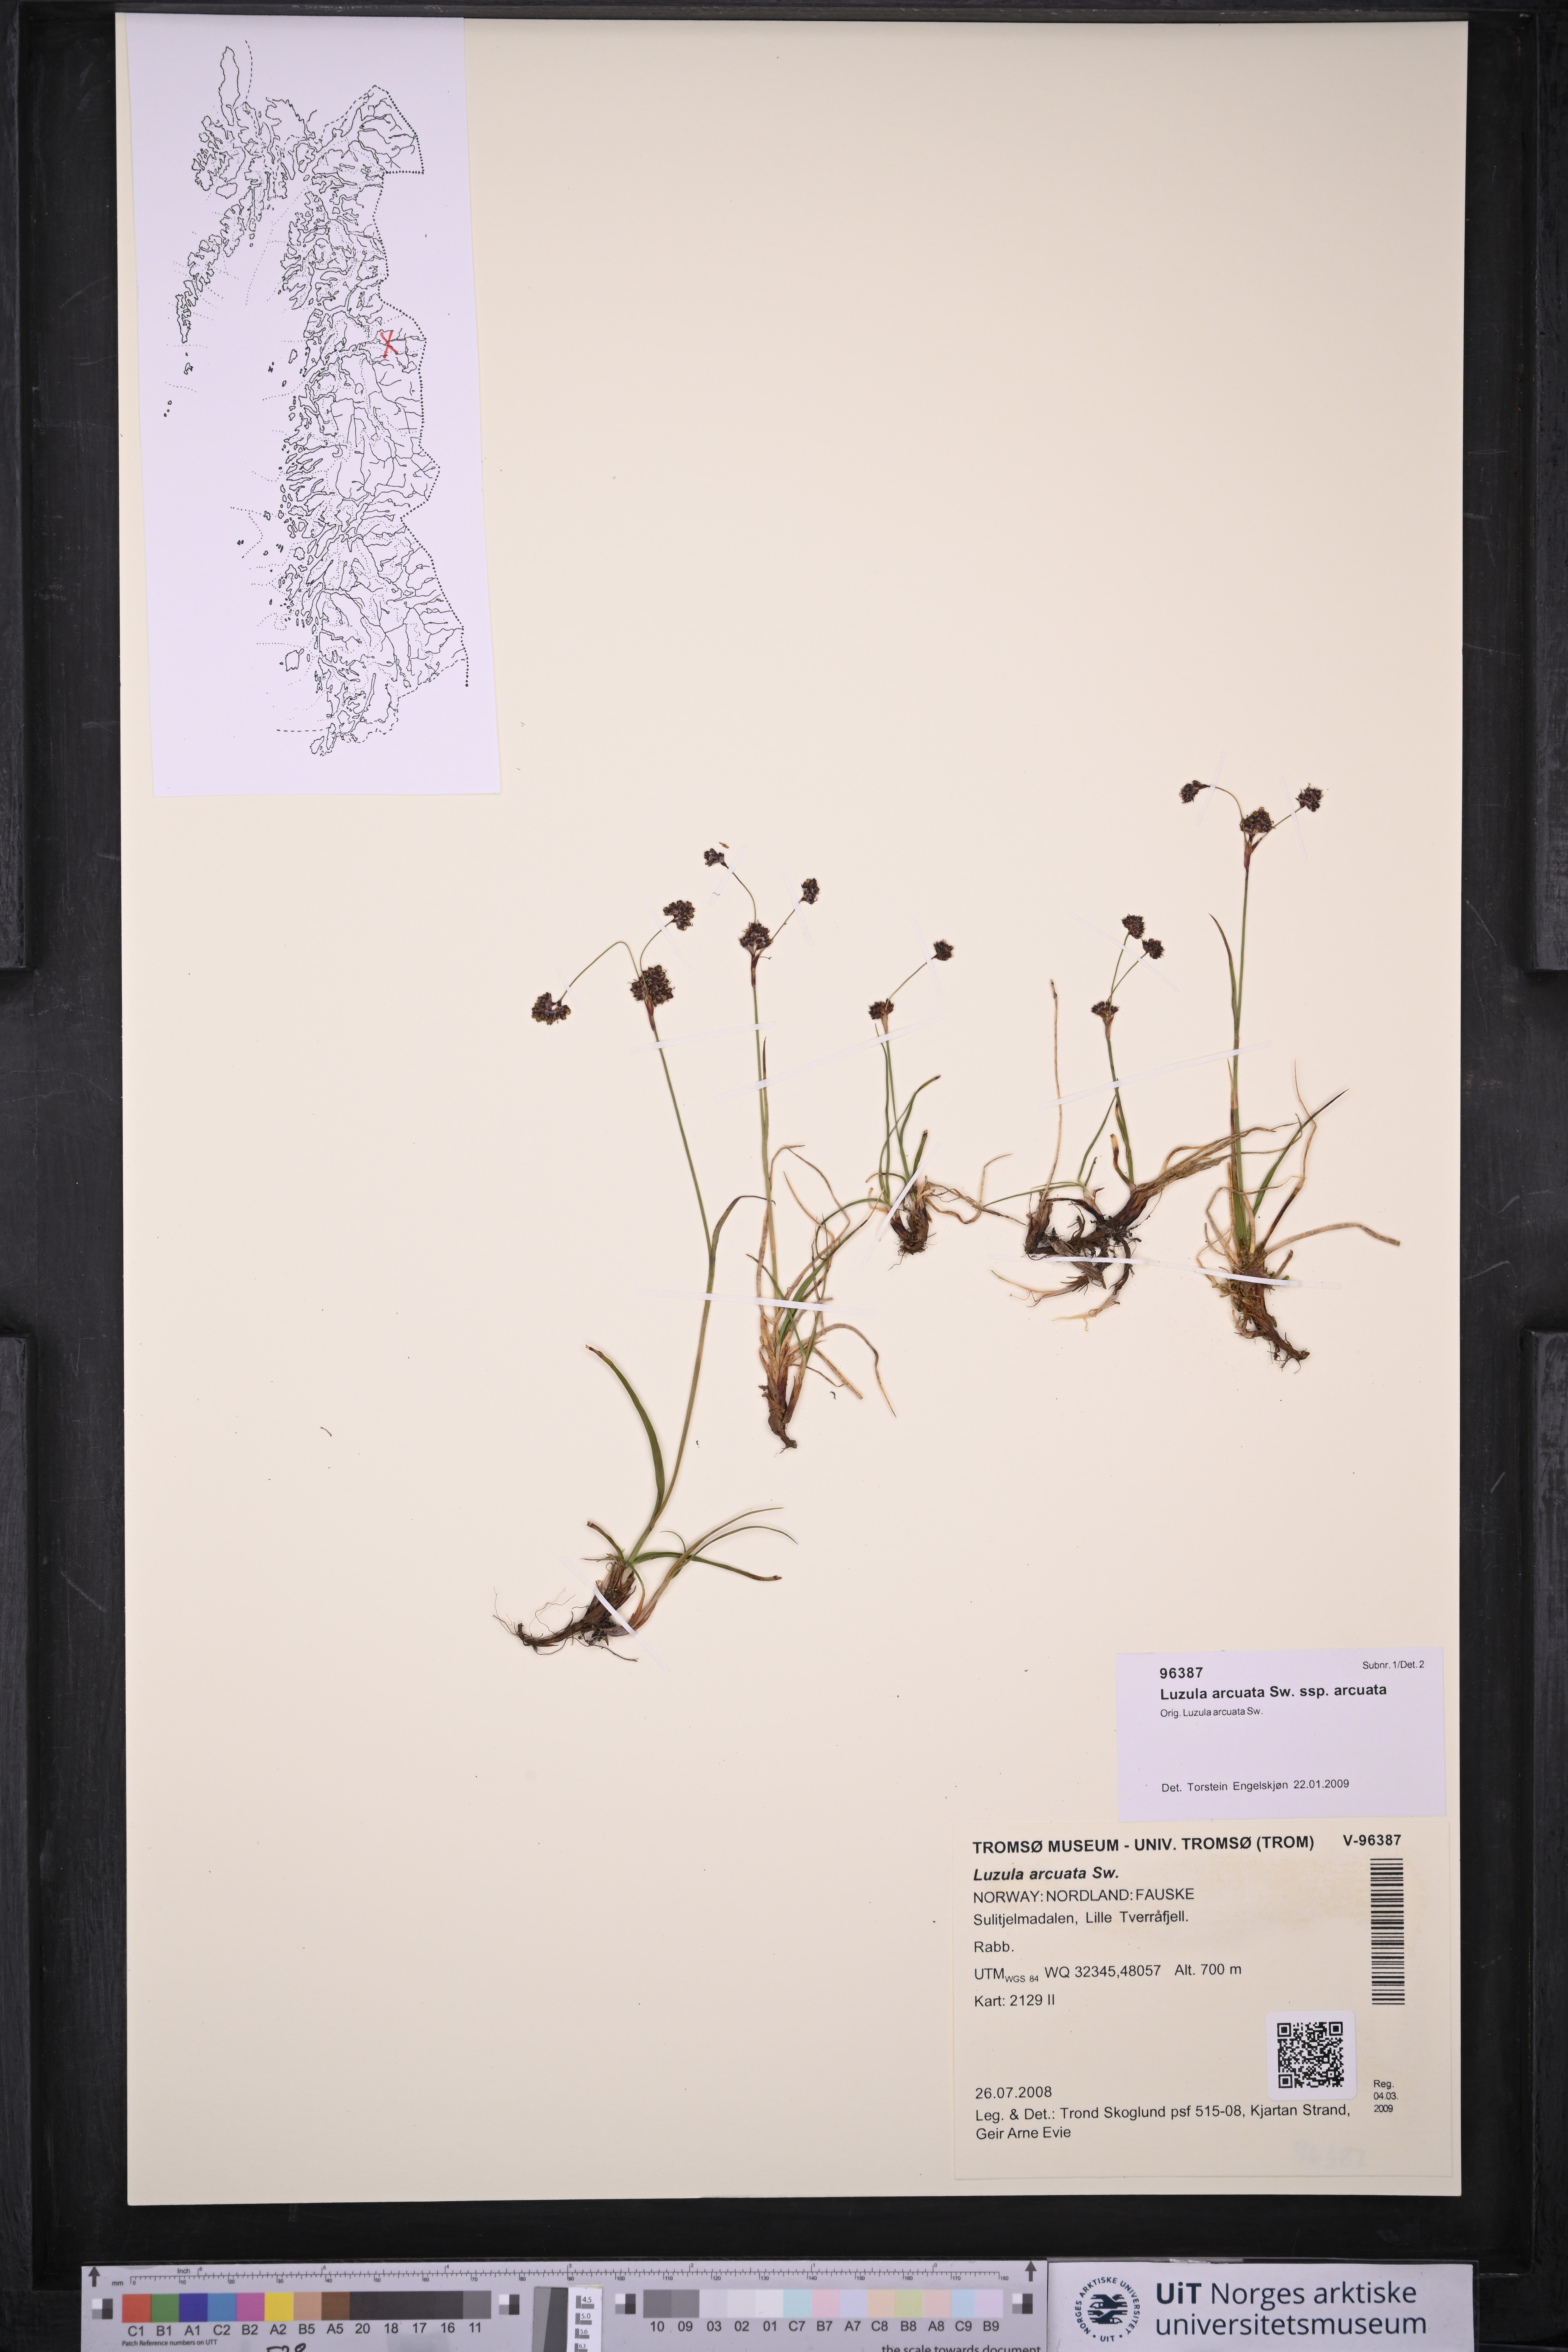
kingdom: Plantae
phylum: Tracheophyta
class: Liliopsida
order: Poales
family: Juncaceae
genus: Luzula
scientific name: Luzula arcuata
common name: Curved wood-rush
